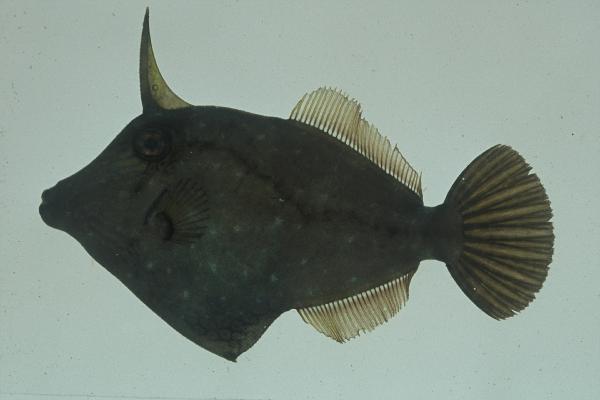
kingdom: Animalia
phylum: Chordata
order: Tetraodontiformes
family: Monacanthidae
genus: Cantherhines
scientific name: Cantherhines pardalis
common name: Honeycomb filefish
